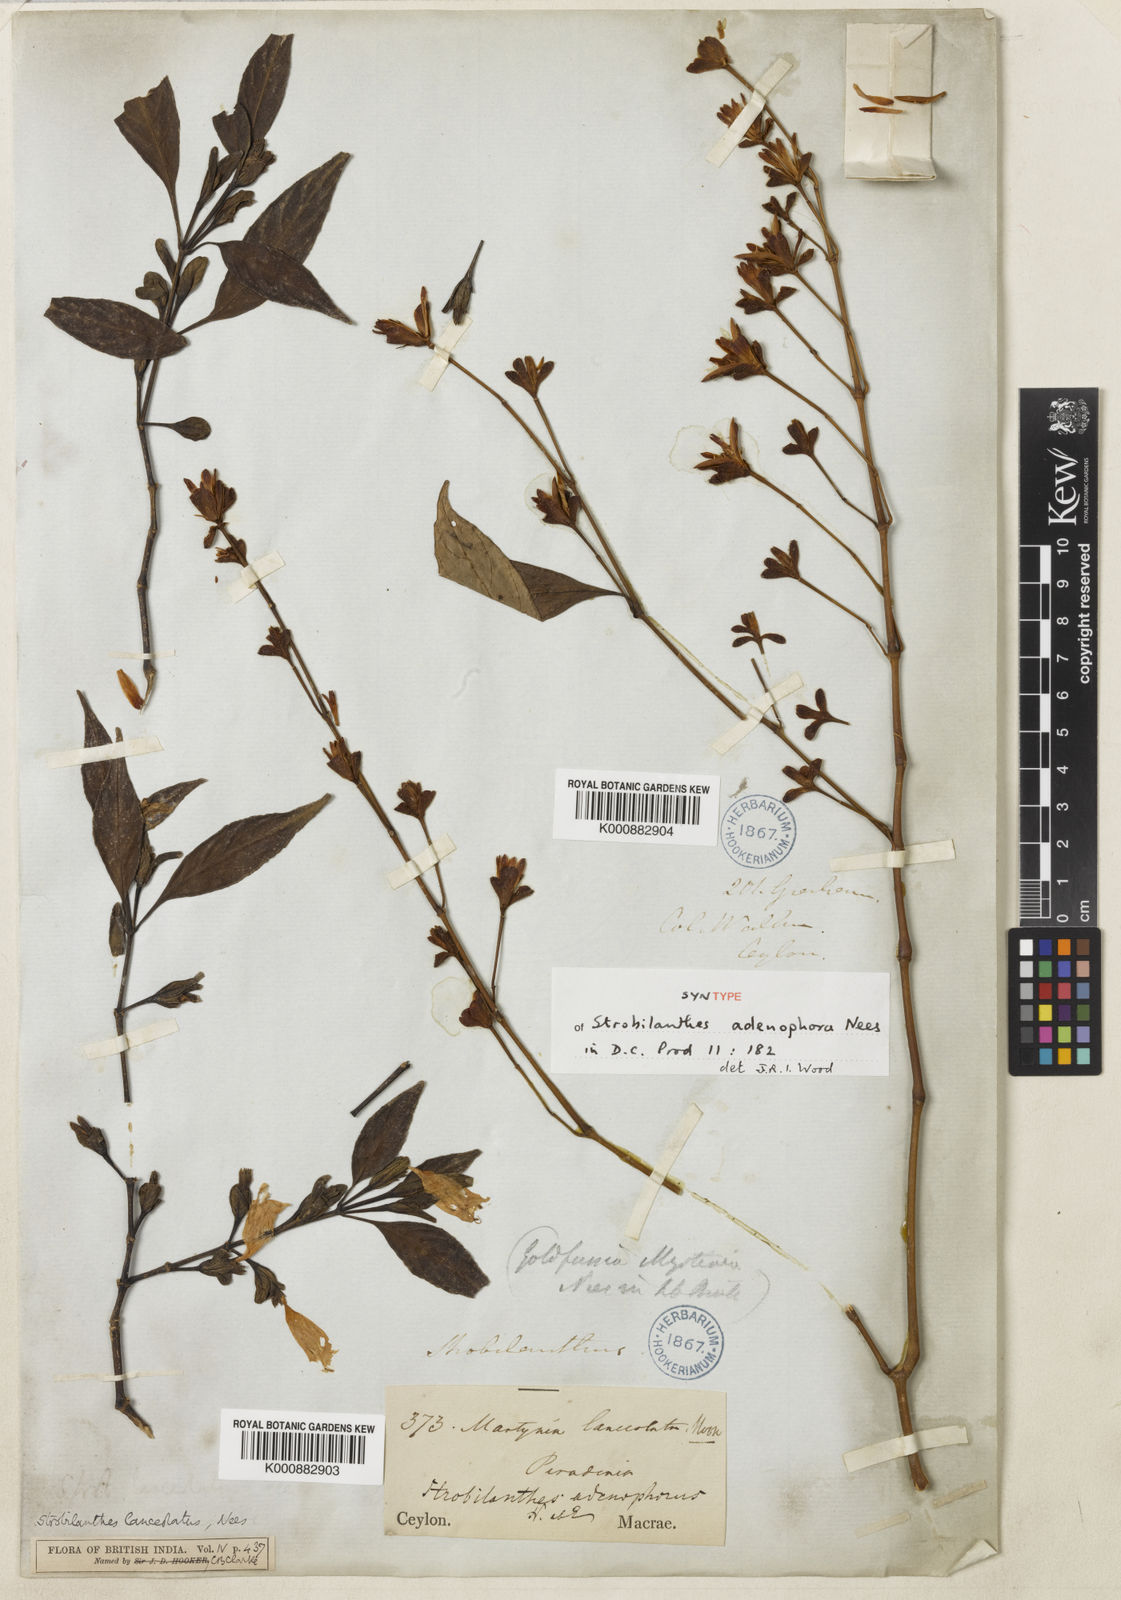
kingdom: Plantae
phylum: Tracheophyta
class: Magnoliopsida
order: Lamiales
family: Acanthaceae
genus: Strobilanthes
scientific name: Strobilanthes adenophora
